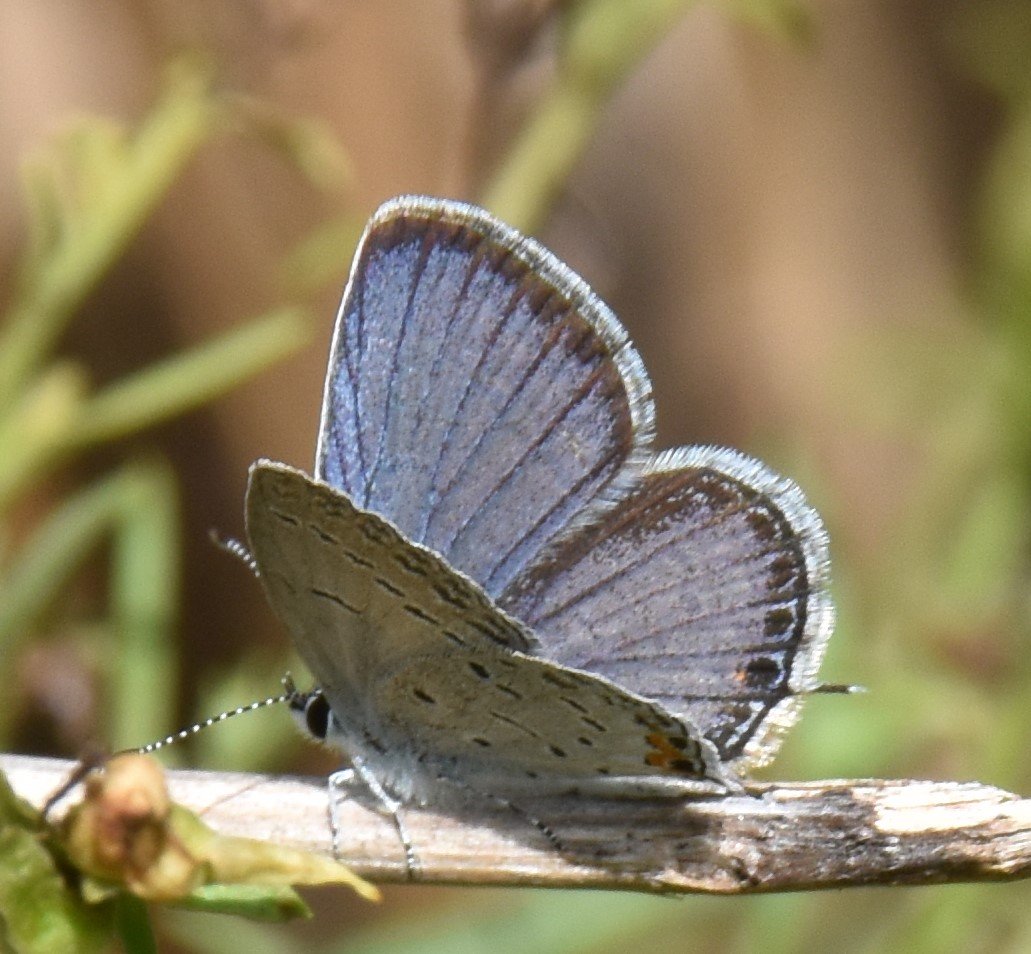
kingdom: Animalia
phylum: Arthropoda
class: Insecta
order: Lepidoptera
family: Lycaenidae
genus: Elkalyce
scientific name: Elkalyce comyntas
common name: Eastern Tailed-Blue
